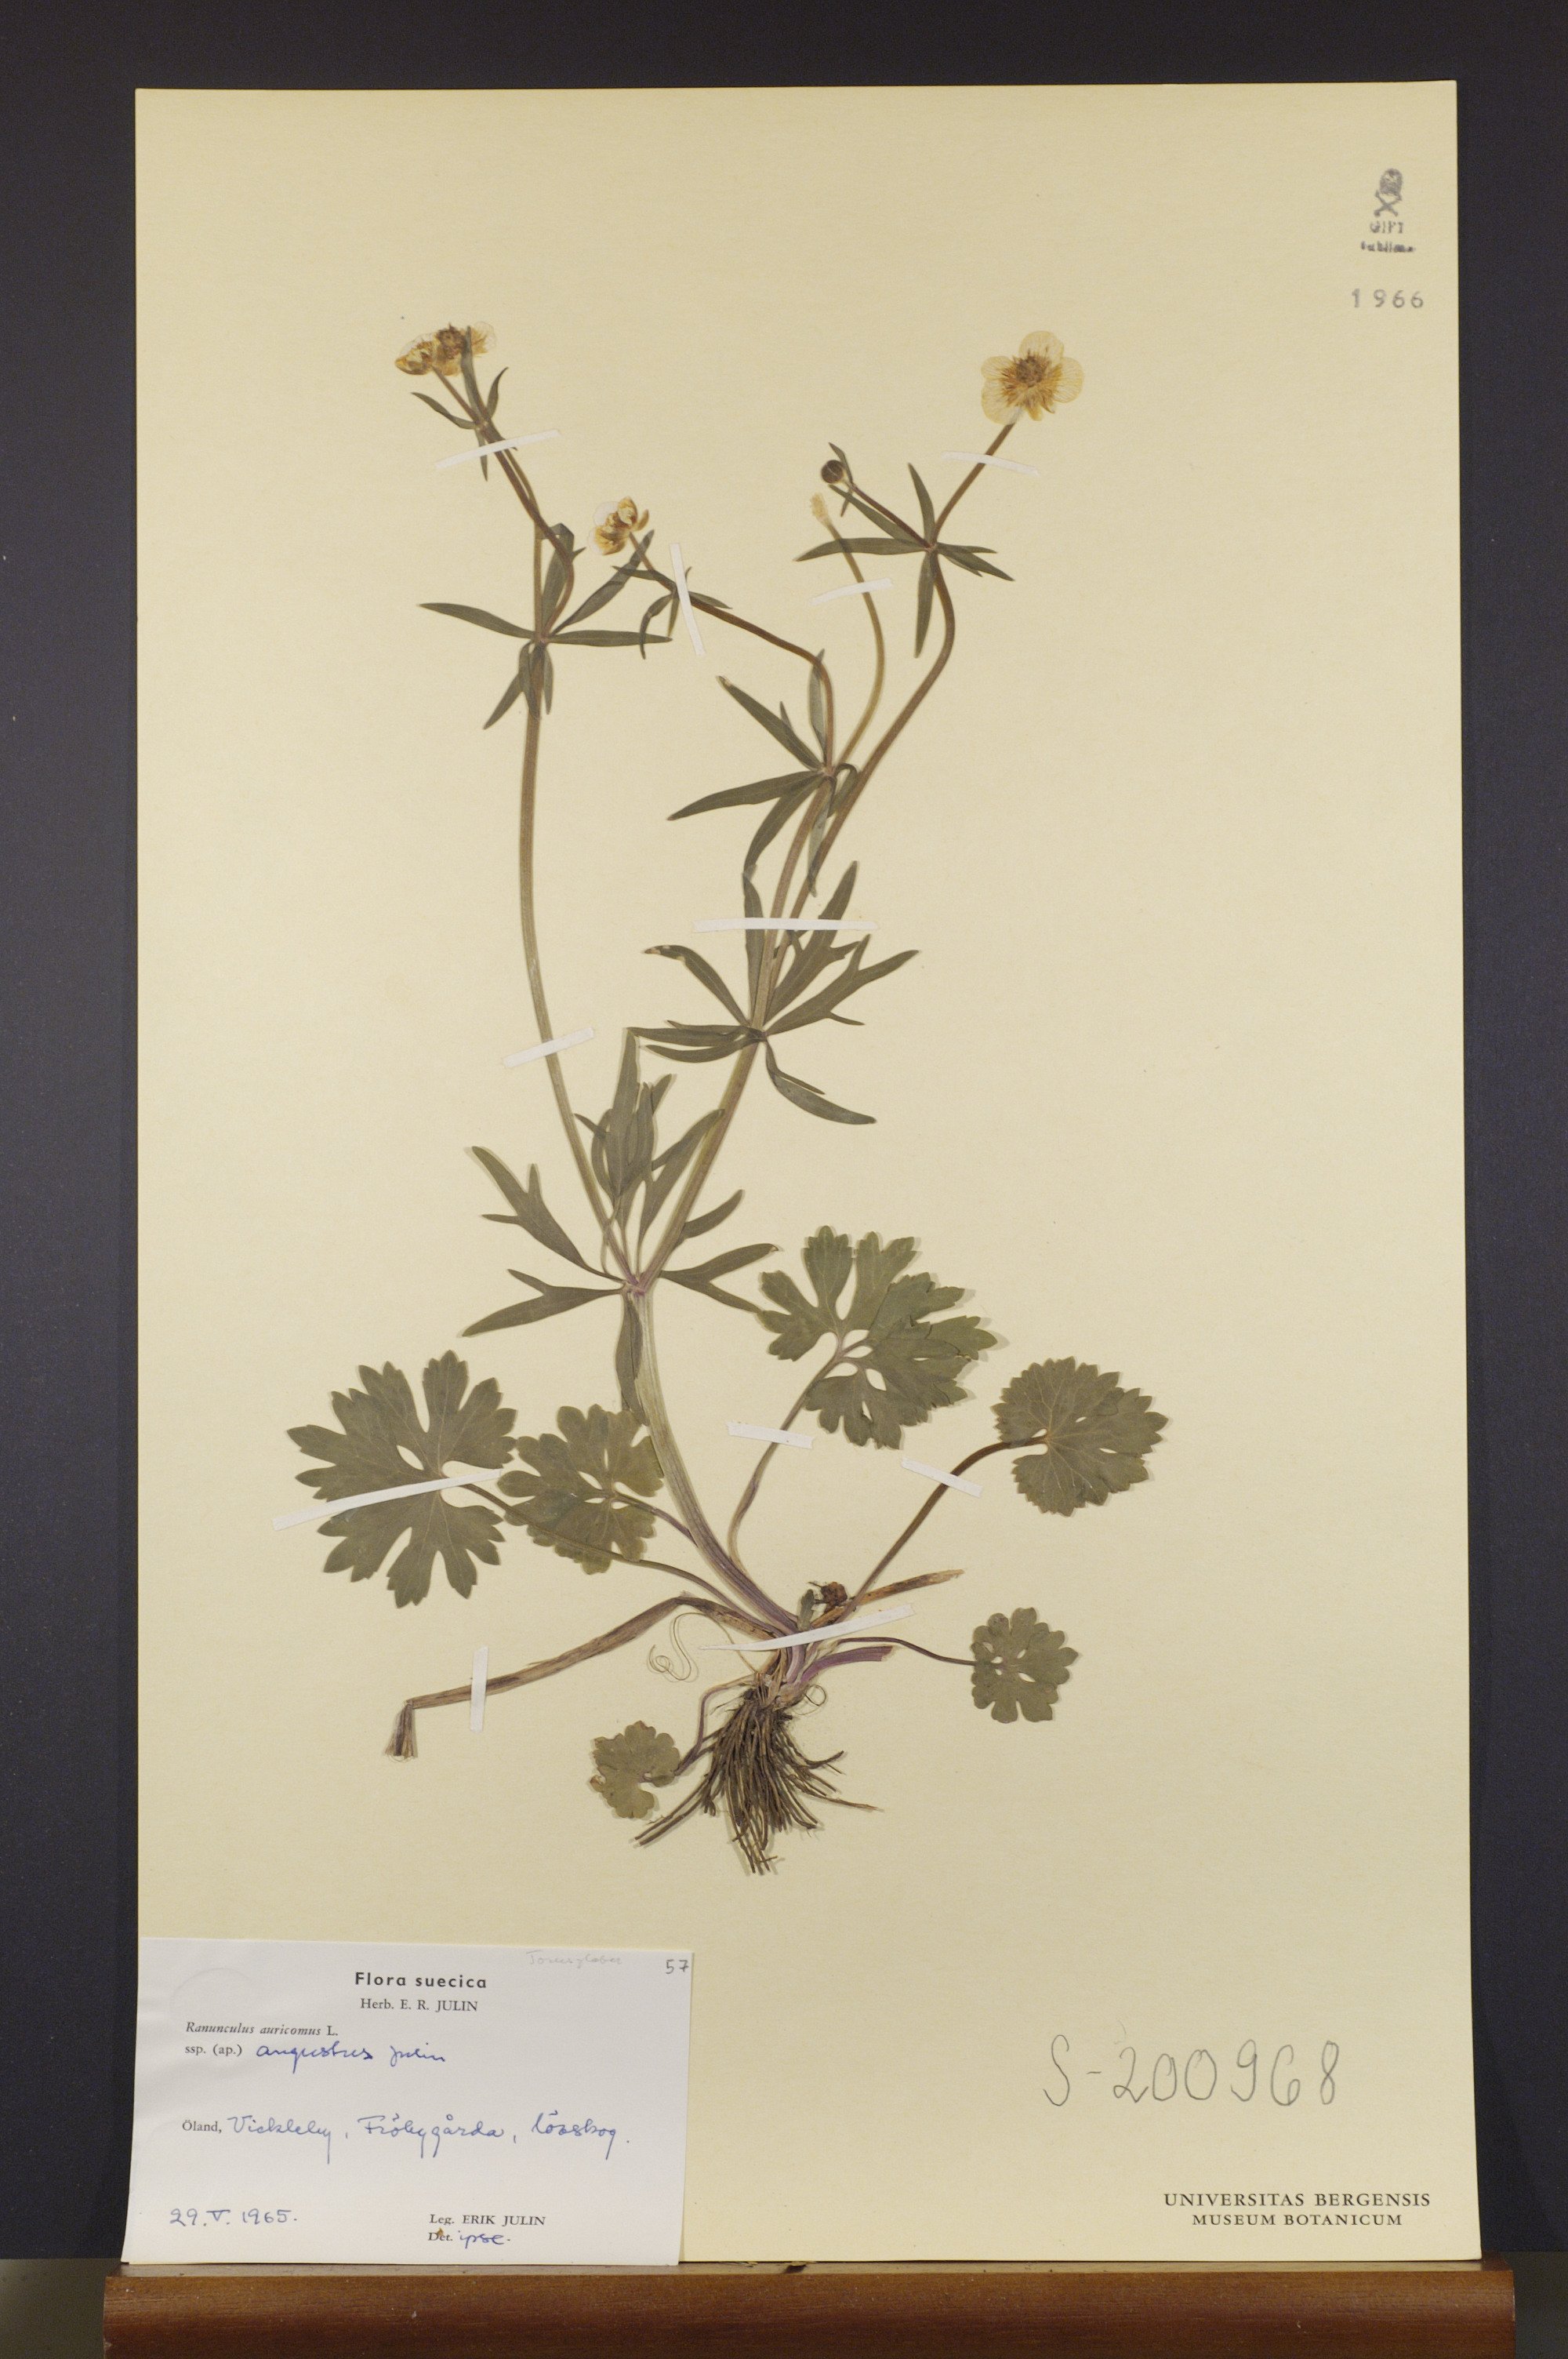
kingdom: Plantae
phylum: Tracheophyta
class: Magnoliopsida
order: Ranunculales
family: Ranunculaceae
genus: Ranunculus
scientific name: Ranunculus angustus
